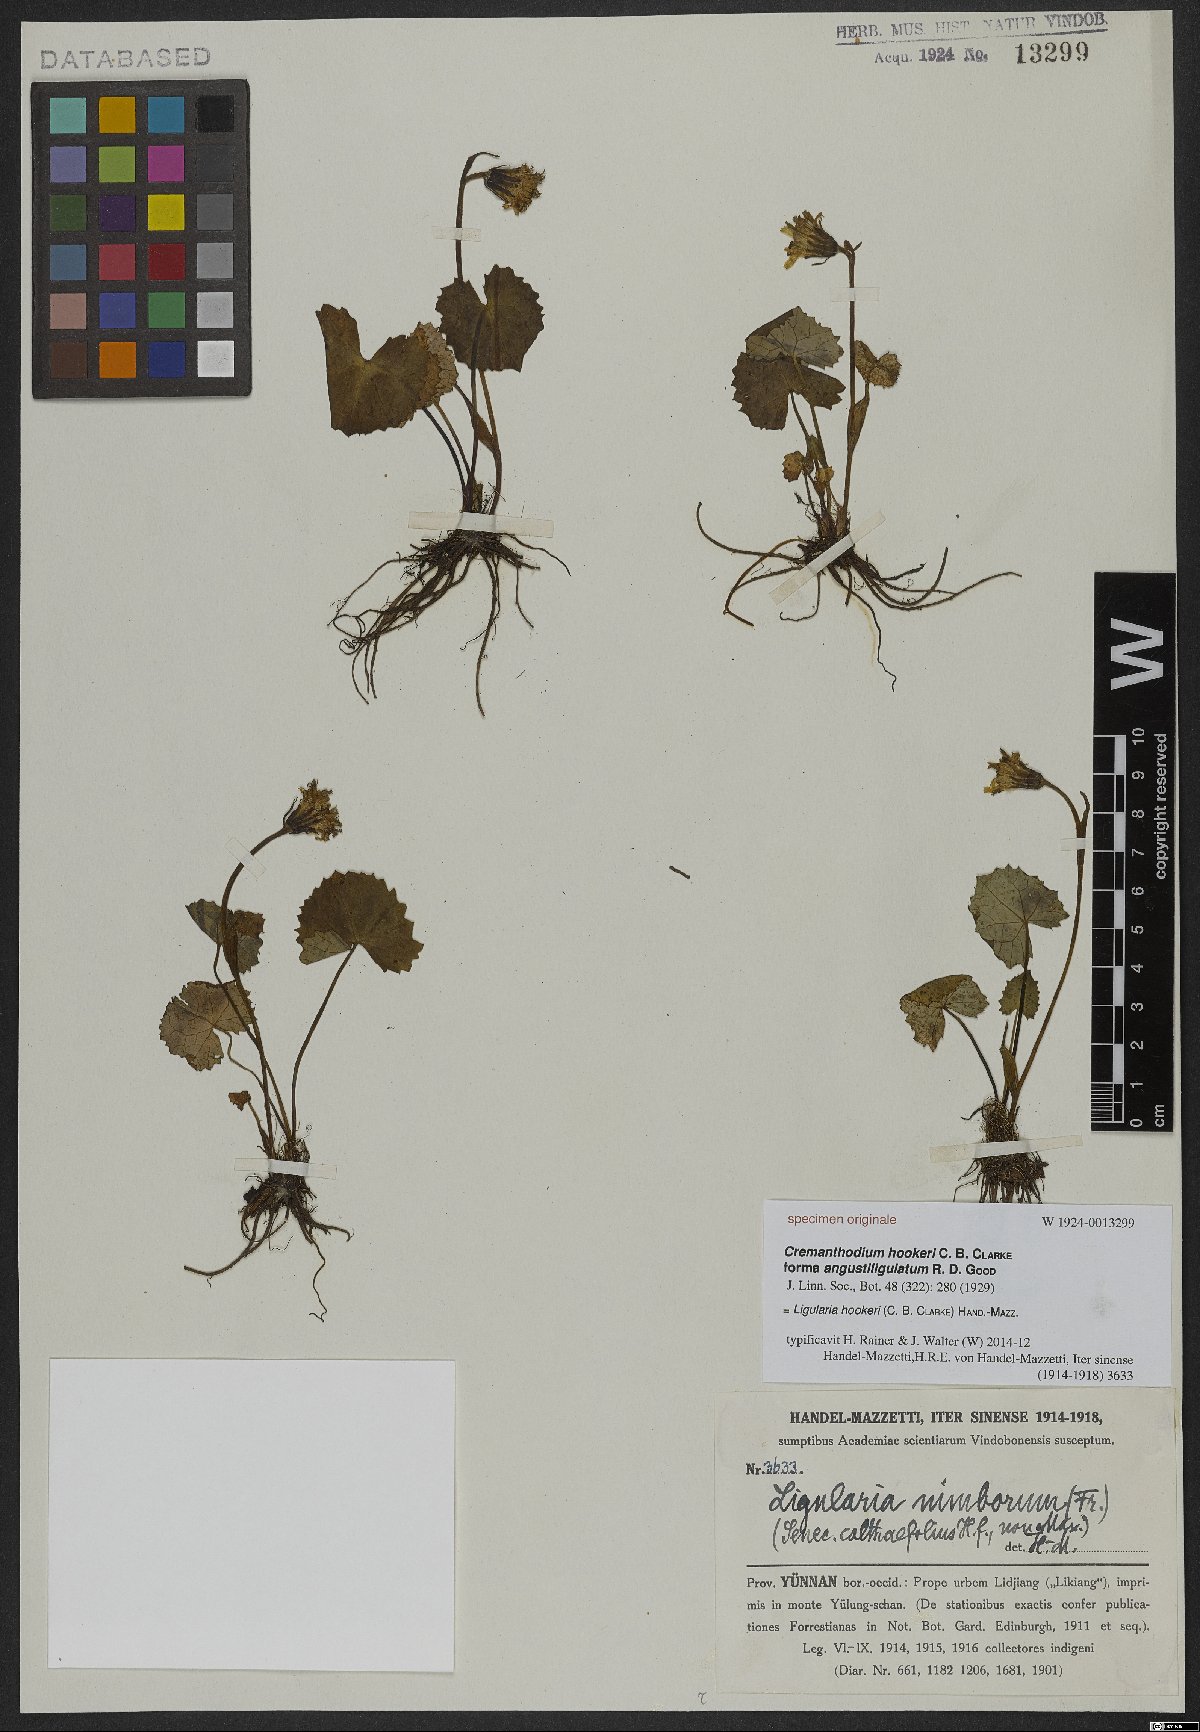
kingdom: Plantae
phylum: Tracheophyta
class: Magnoliopsida
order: Asterales
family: Asteraceae
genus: Ligularia
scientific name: Ligularia hookeri
